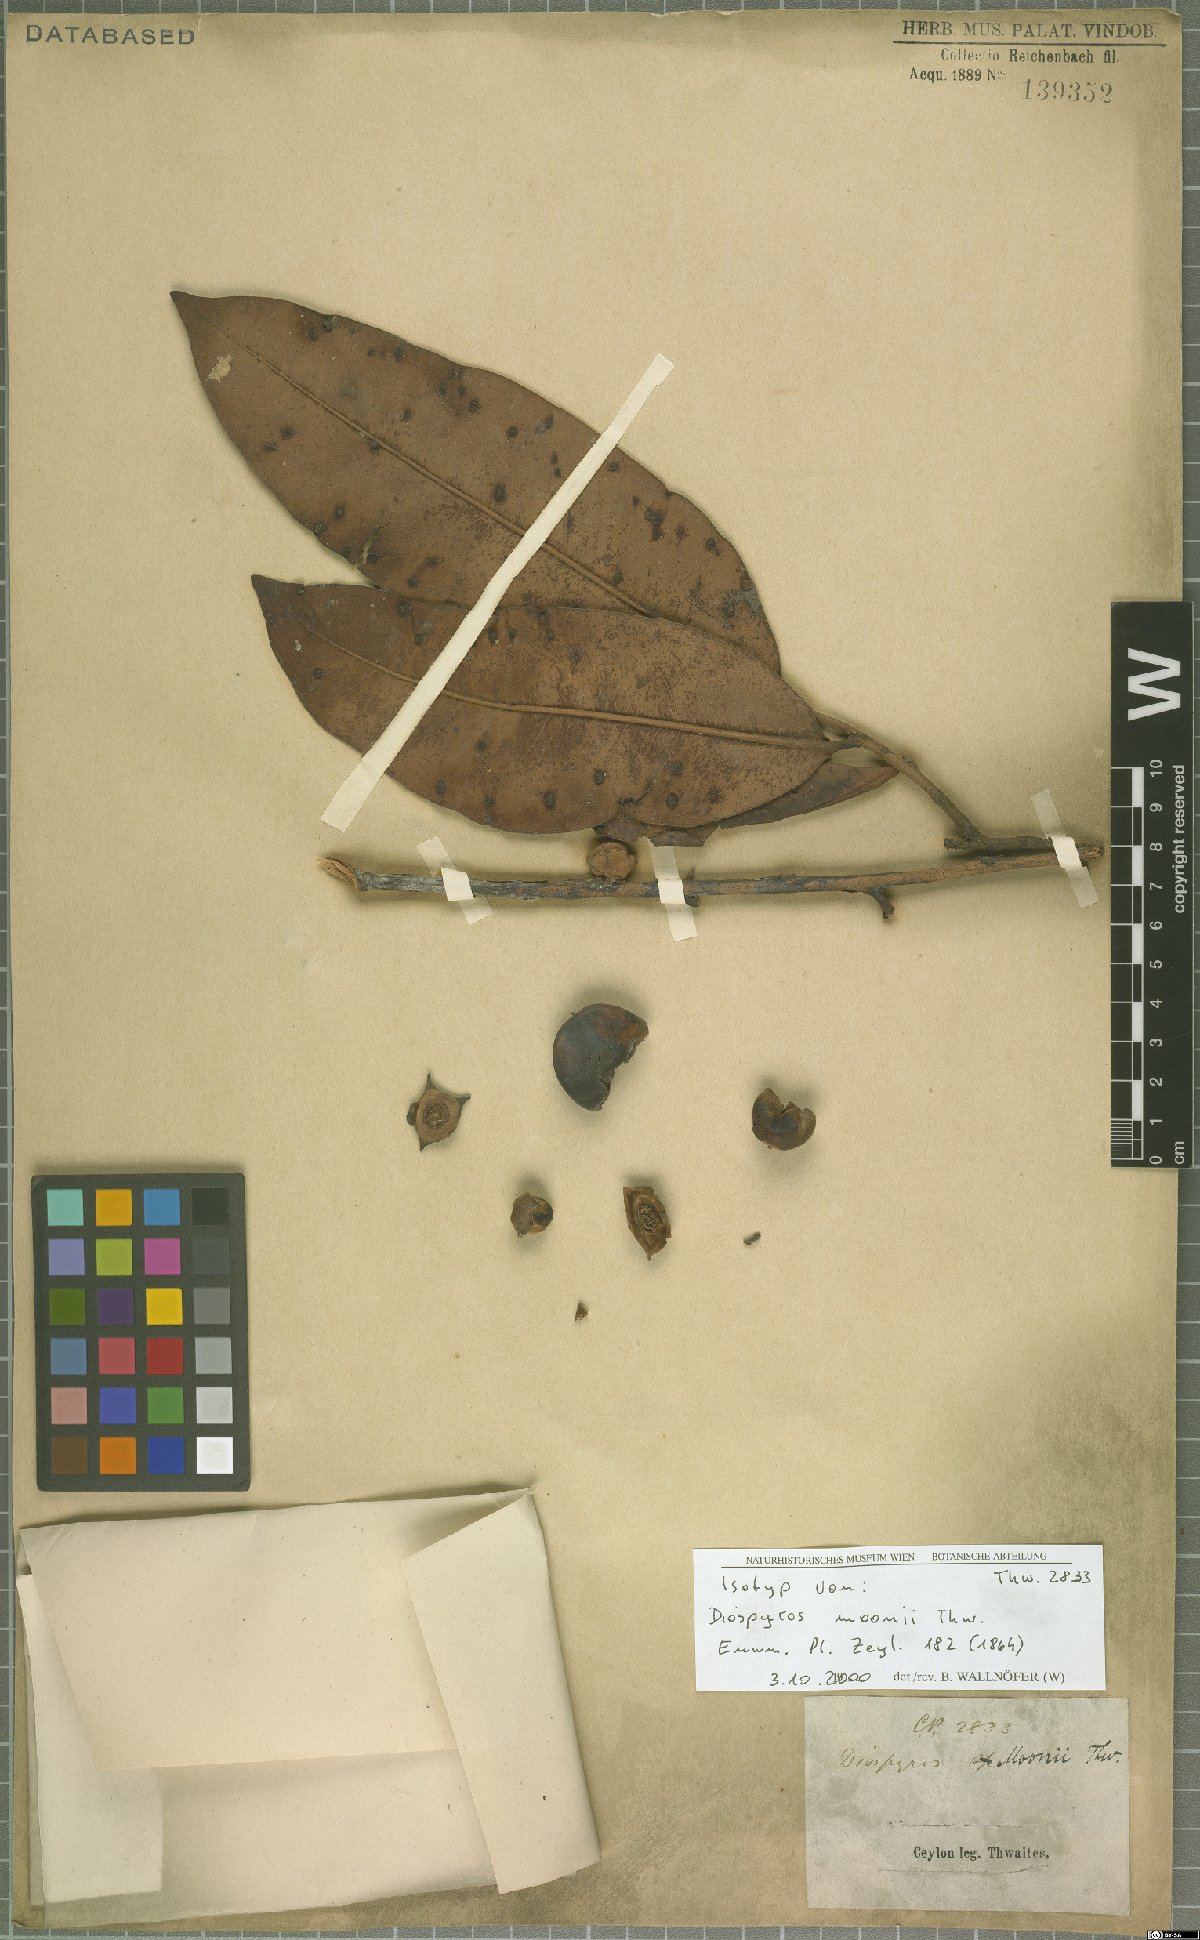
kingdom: Plantae
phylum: Tracheophyta
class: Magnoliopsida
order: Ericales
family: Ebenaceae
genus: Diospyros
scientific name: Diospyros moonii
